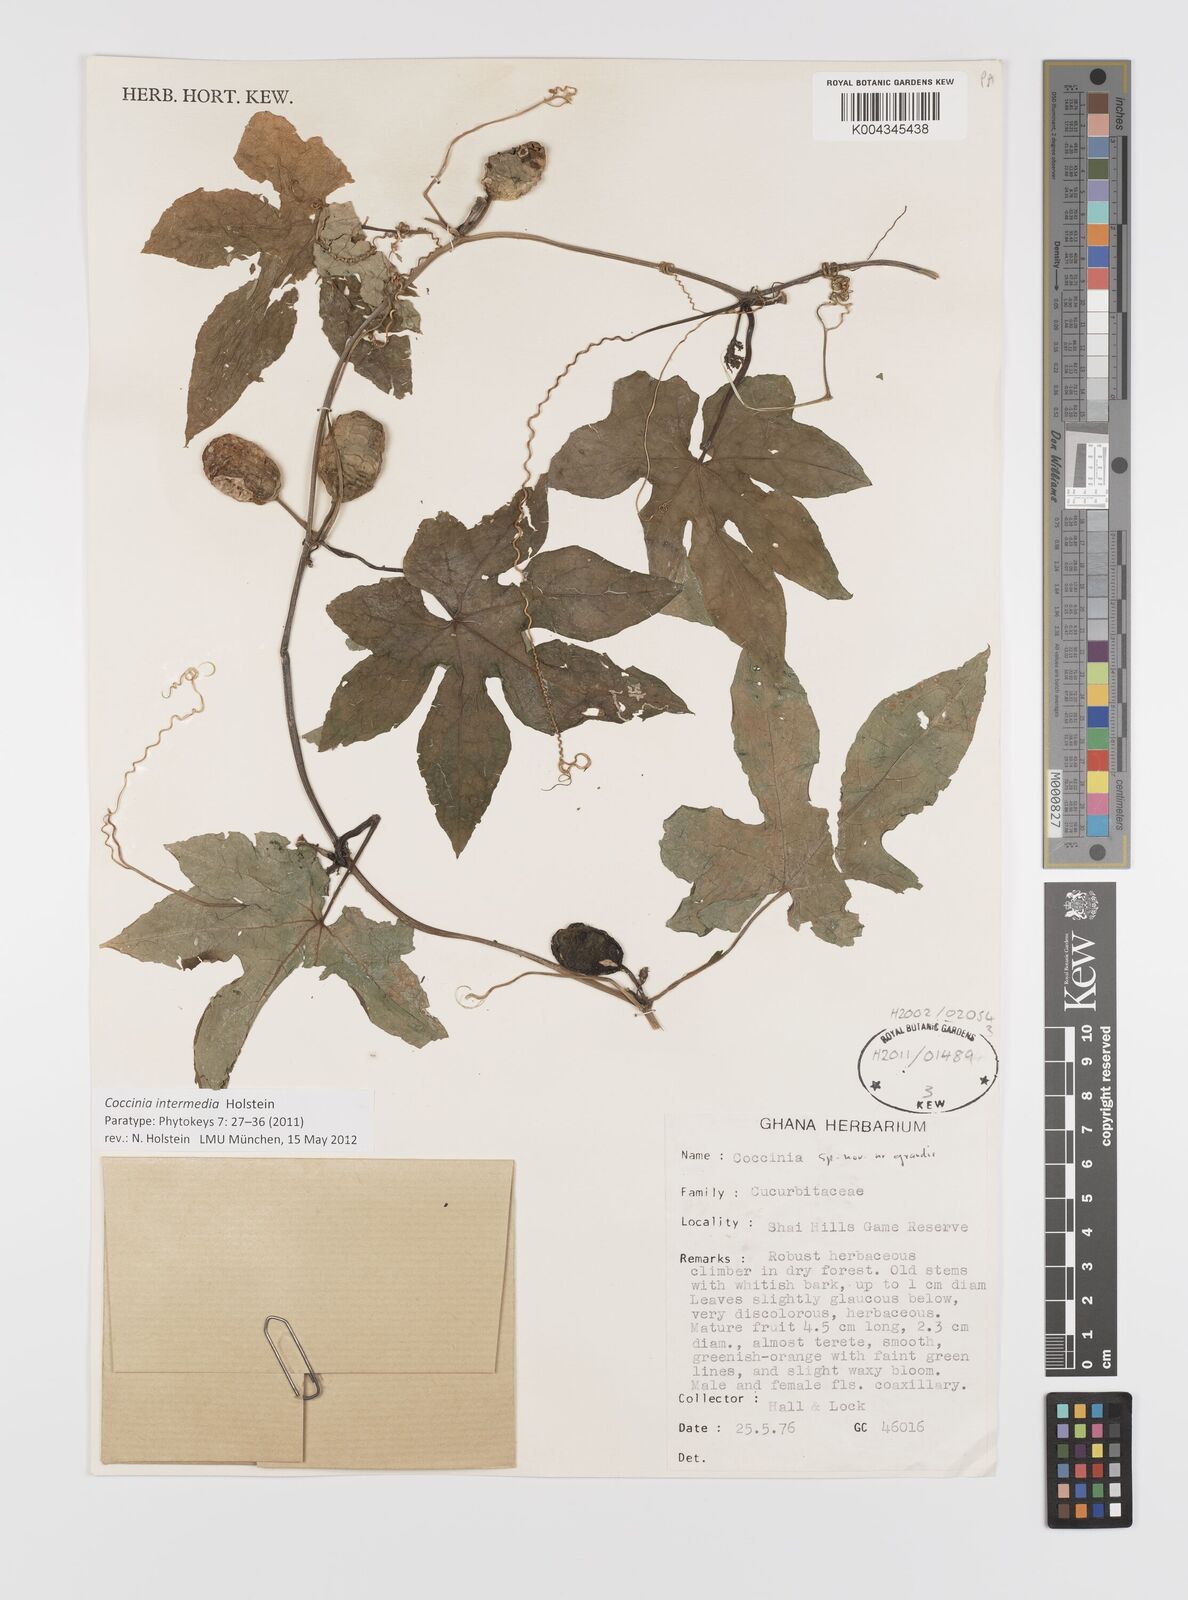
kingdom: Plantae
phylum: Tracheophyta
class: Magnoliopsida
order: Cucurbitales
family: Cucurbitaceae
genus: Coccinia
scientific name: Coccinia intermedia
